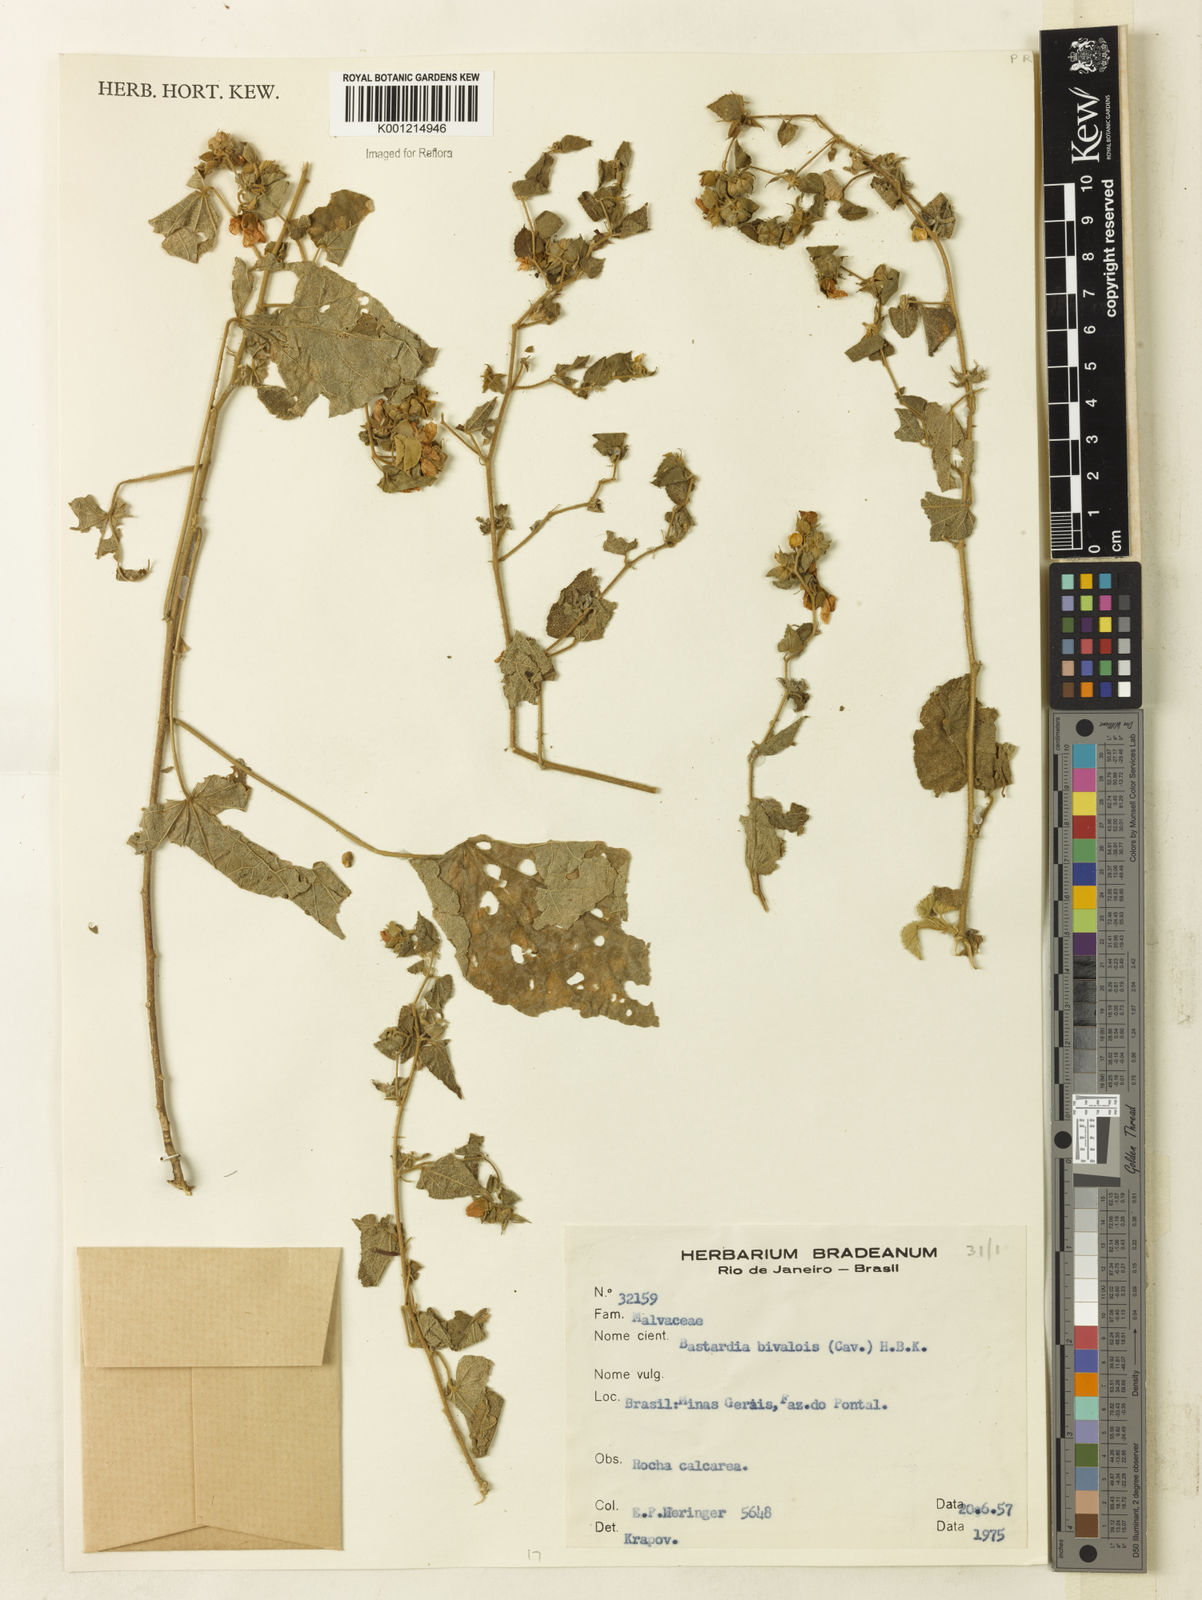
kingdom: Plantae
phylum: Tracheophyta
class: Magnoliopsida
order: Malvales
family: Malvaceae
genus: Abutilon
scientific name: Abutilon
